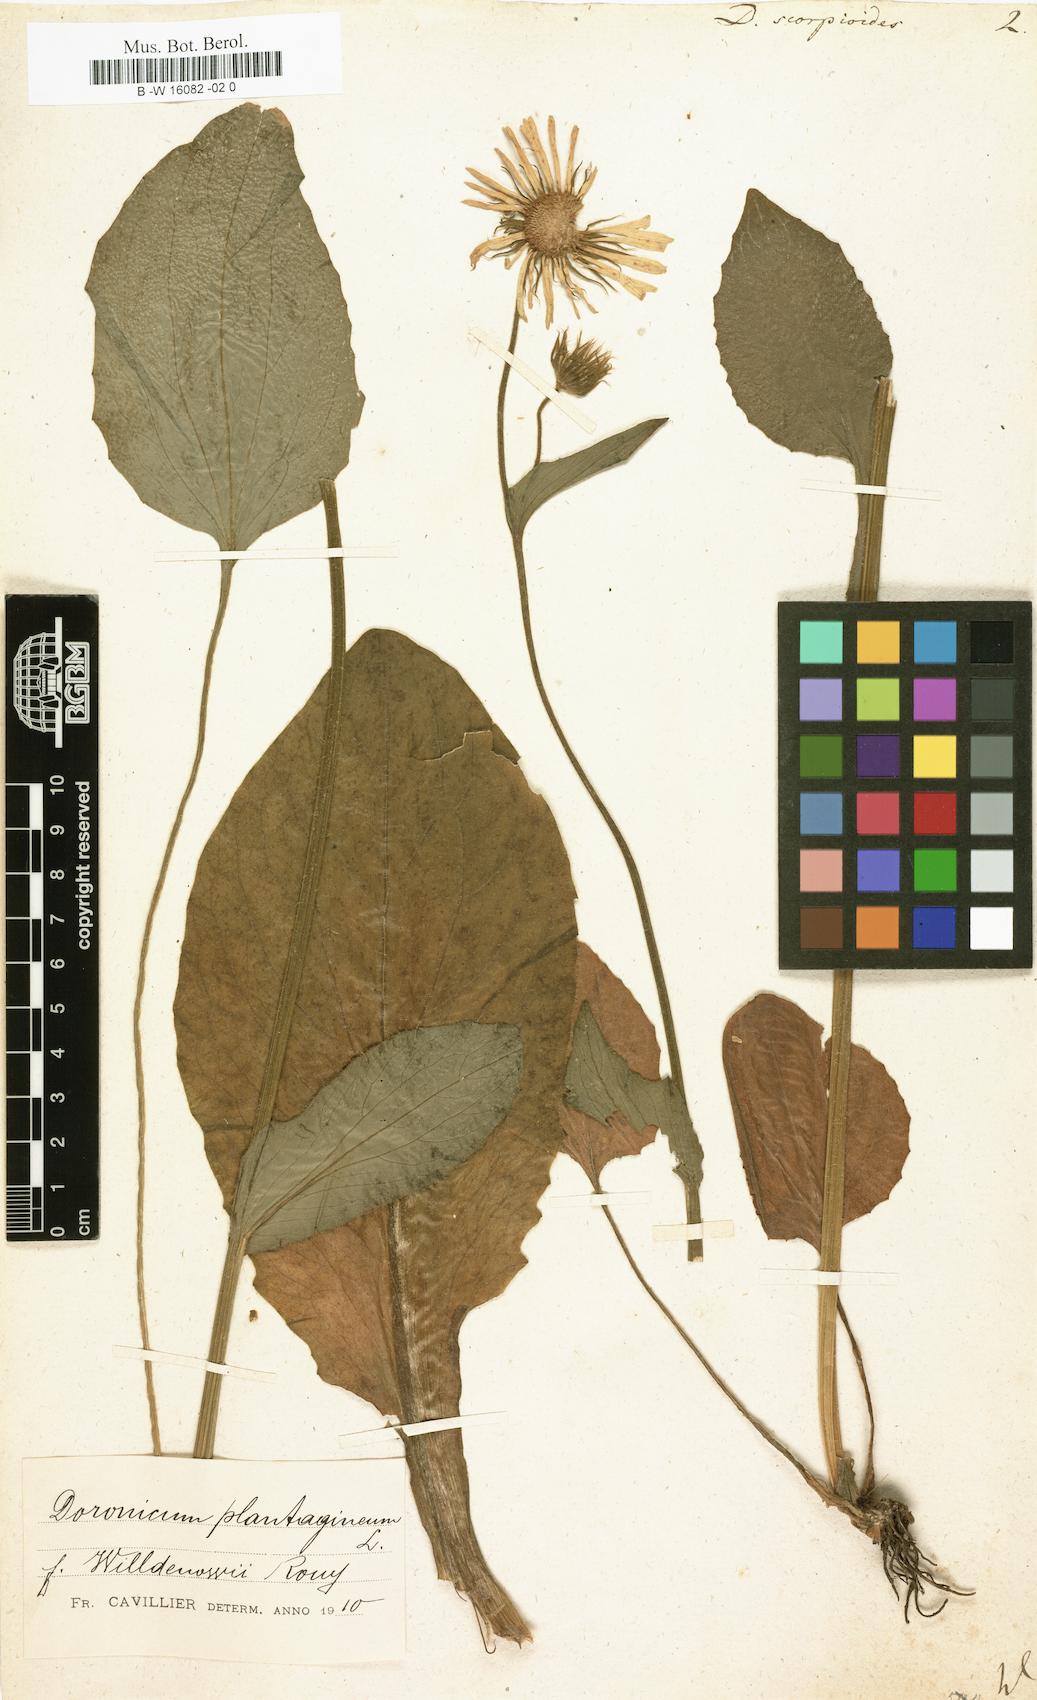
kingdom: Plantae
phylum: Tracheophyta
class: Magnoliopsida
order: Asterales
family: Asteraceae
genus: Doronicum
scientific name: Doronicum grandiflorum
